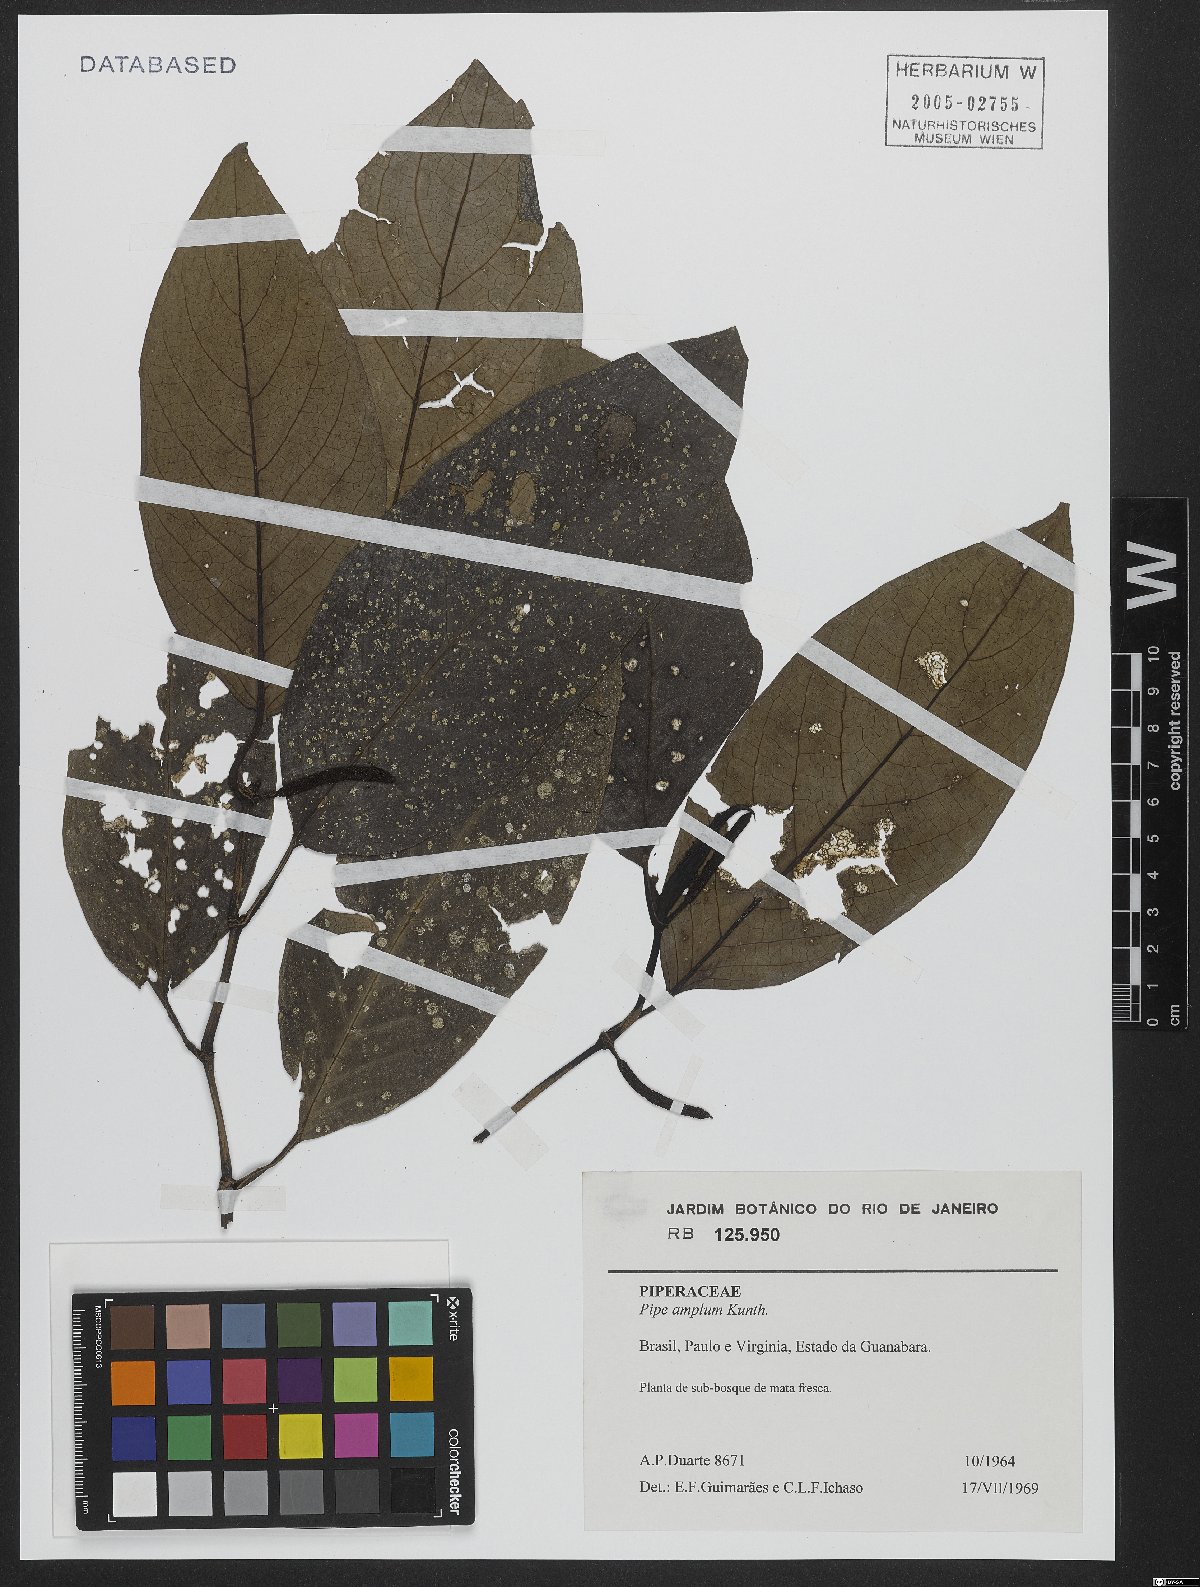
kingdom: Plantae
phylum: Tracheophyta
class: Magnoliopsida
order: Piperales
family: Piperaceae
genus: Piper
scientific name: Piper fluminense
